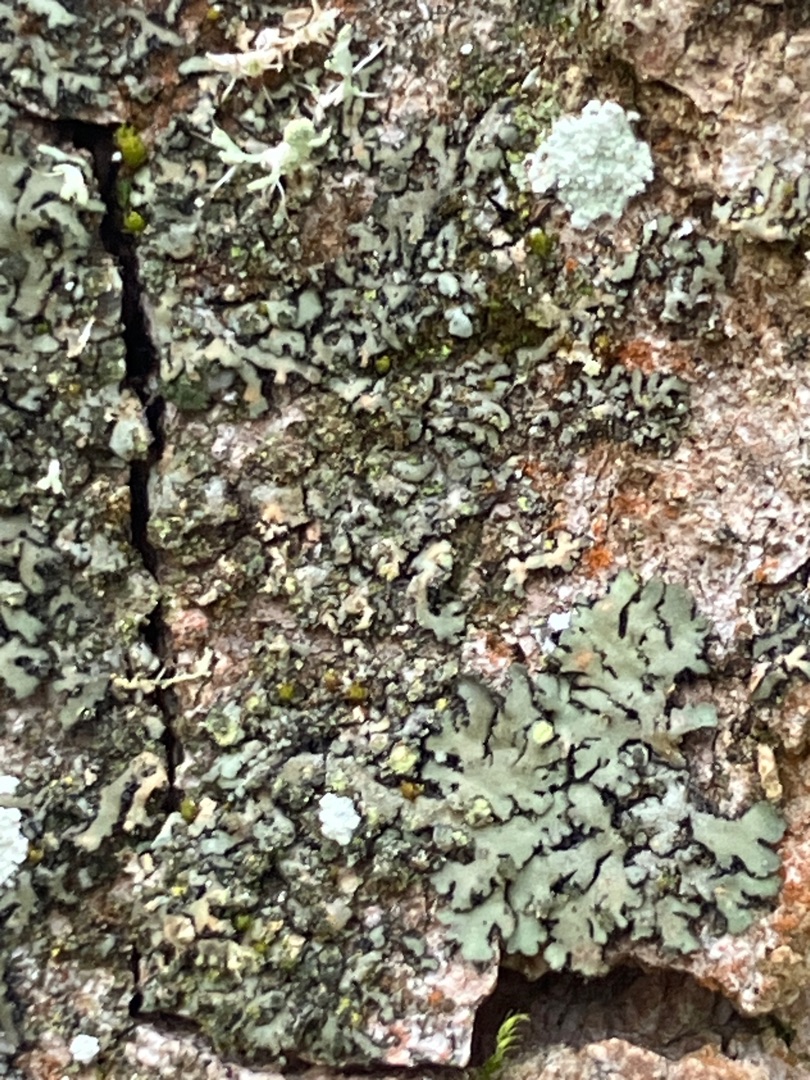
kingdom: Fungi
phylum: Ascomycota
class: Lecanoromycetes
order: Caliciales
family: Physciaceae
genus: Phaeophyscia
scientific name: Phaeophyscia orbicularis
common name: Grågrøn rosetlav
